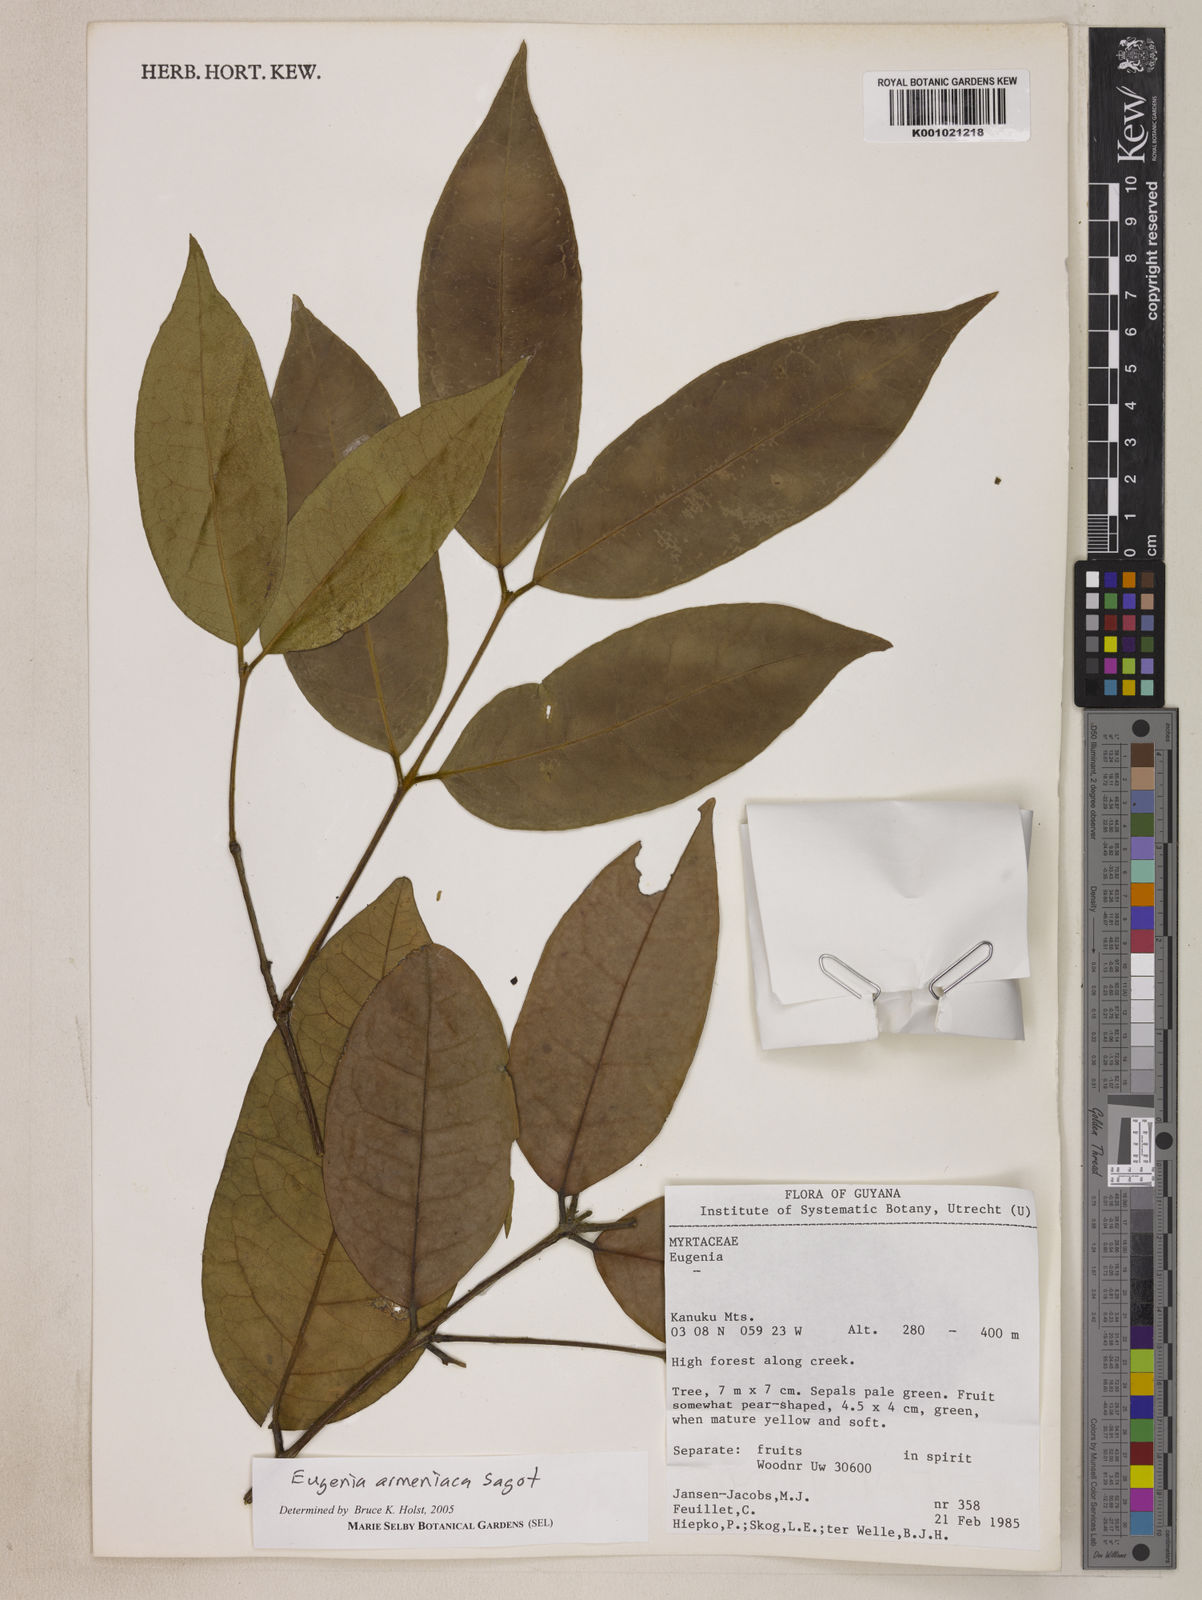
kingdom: Plantae
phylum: Tracheophyta
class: Magnoliopsida
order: Myrtales
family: Myrtaceae
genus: Eugenia
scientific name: Eugenia armeniaca
